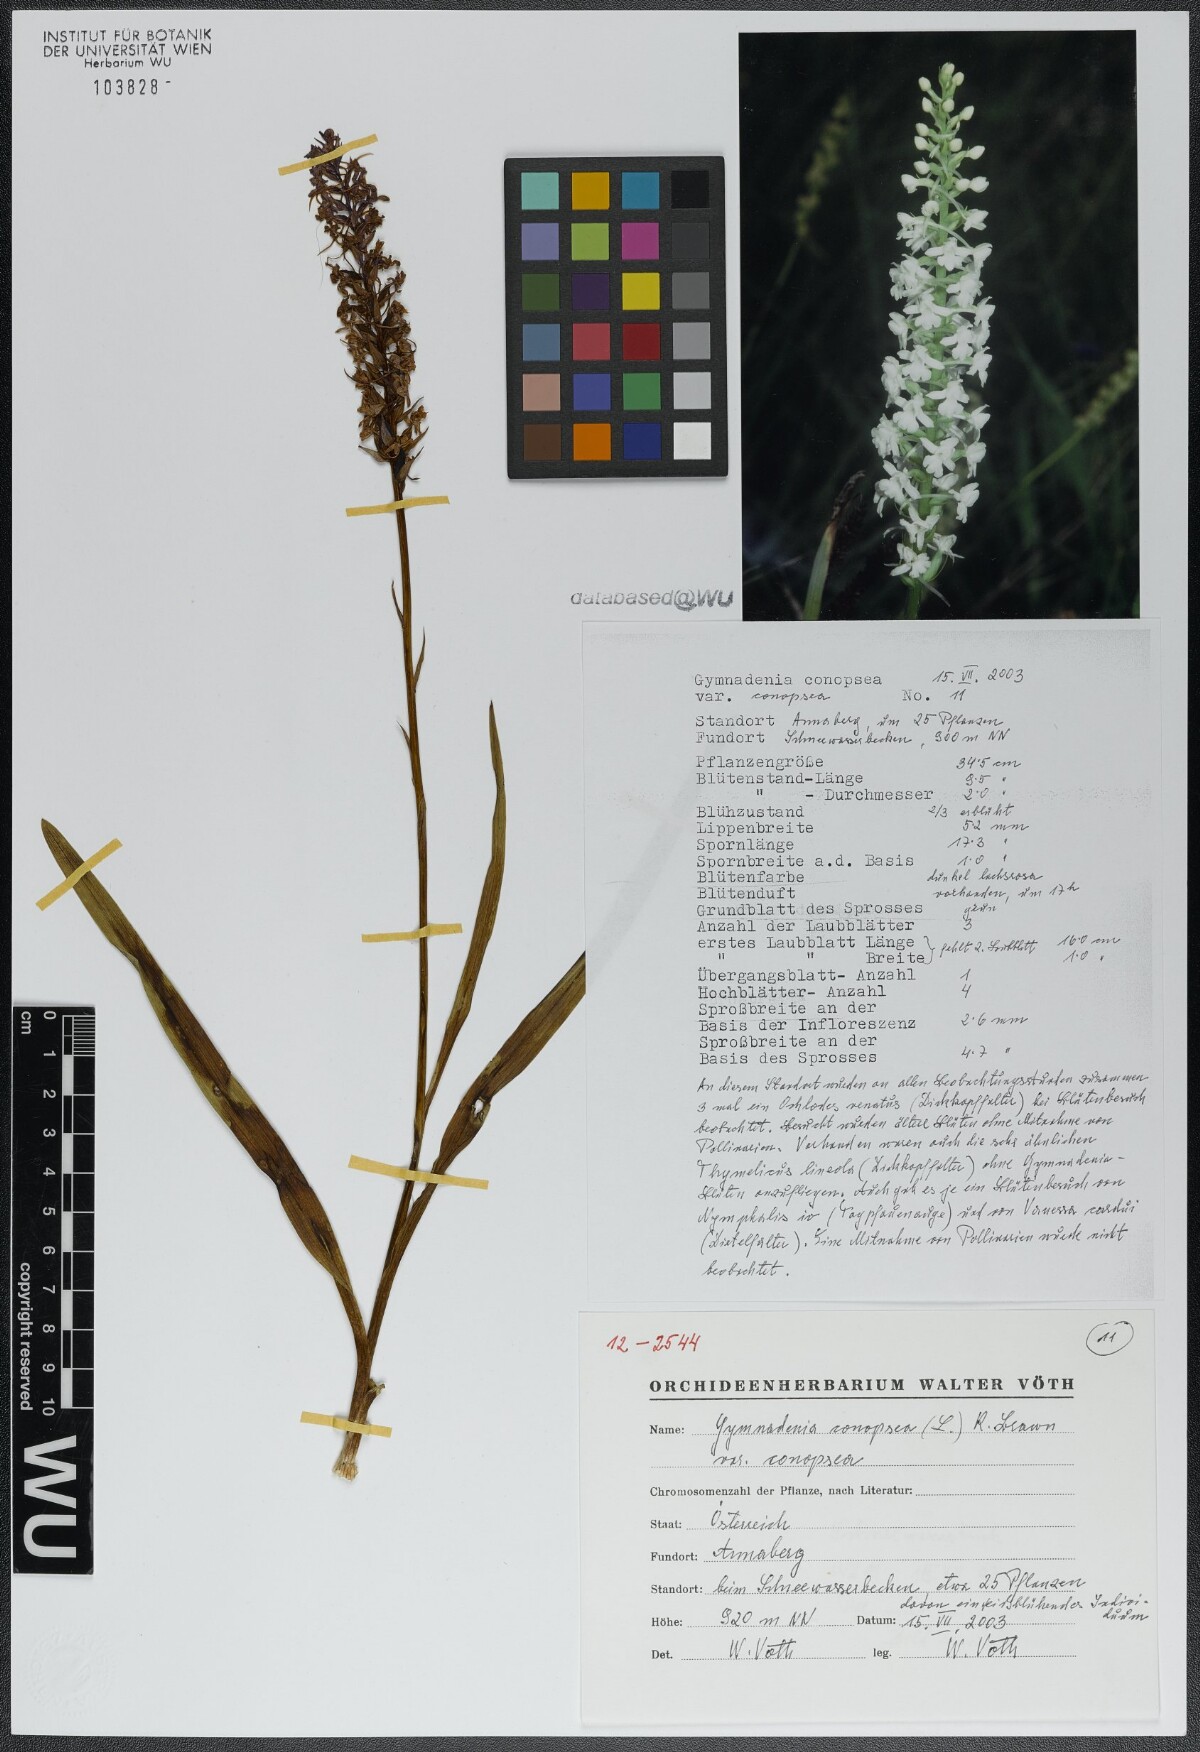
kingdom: Plantae
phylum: Tracheophyta
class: Liliopsida
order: Asparagales
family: Orchidaceae
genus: Gymnadenia
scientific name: Gymnadenia conopsea
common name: Fragrant orchid
